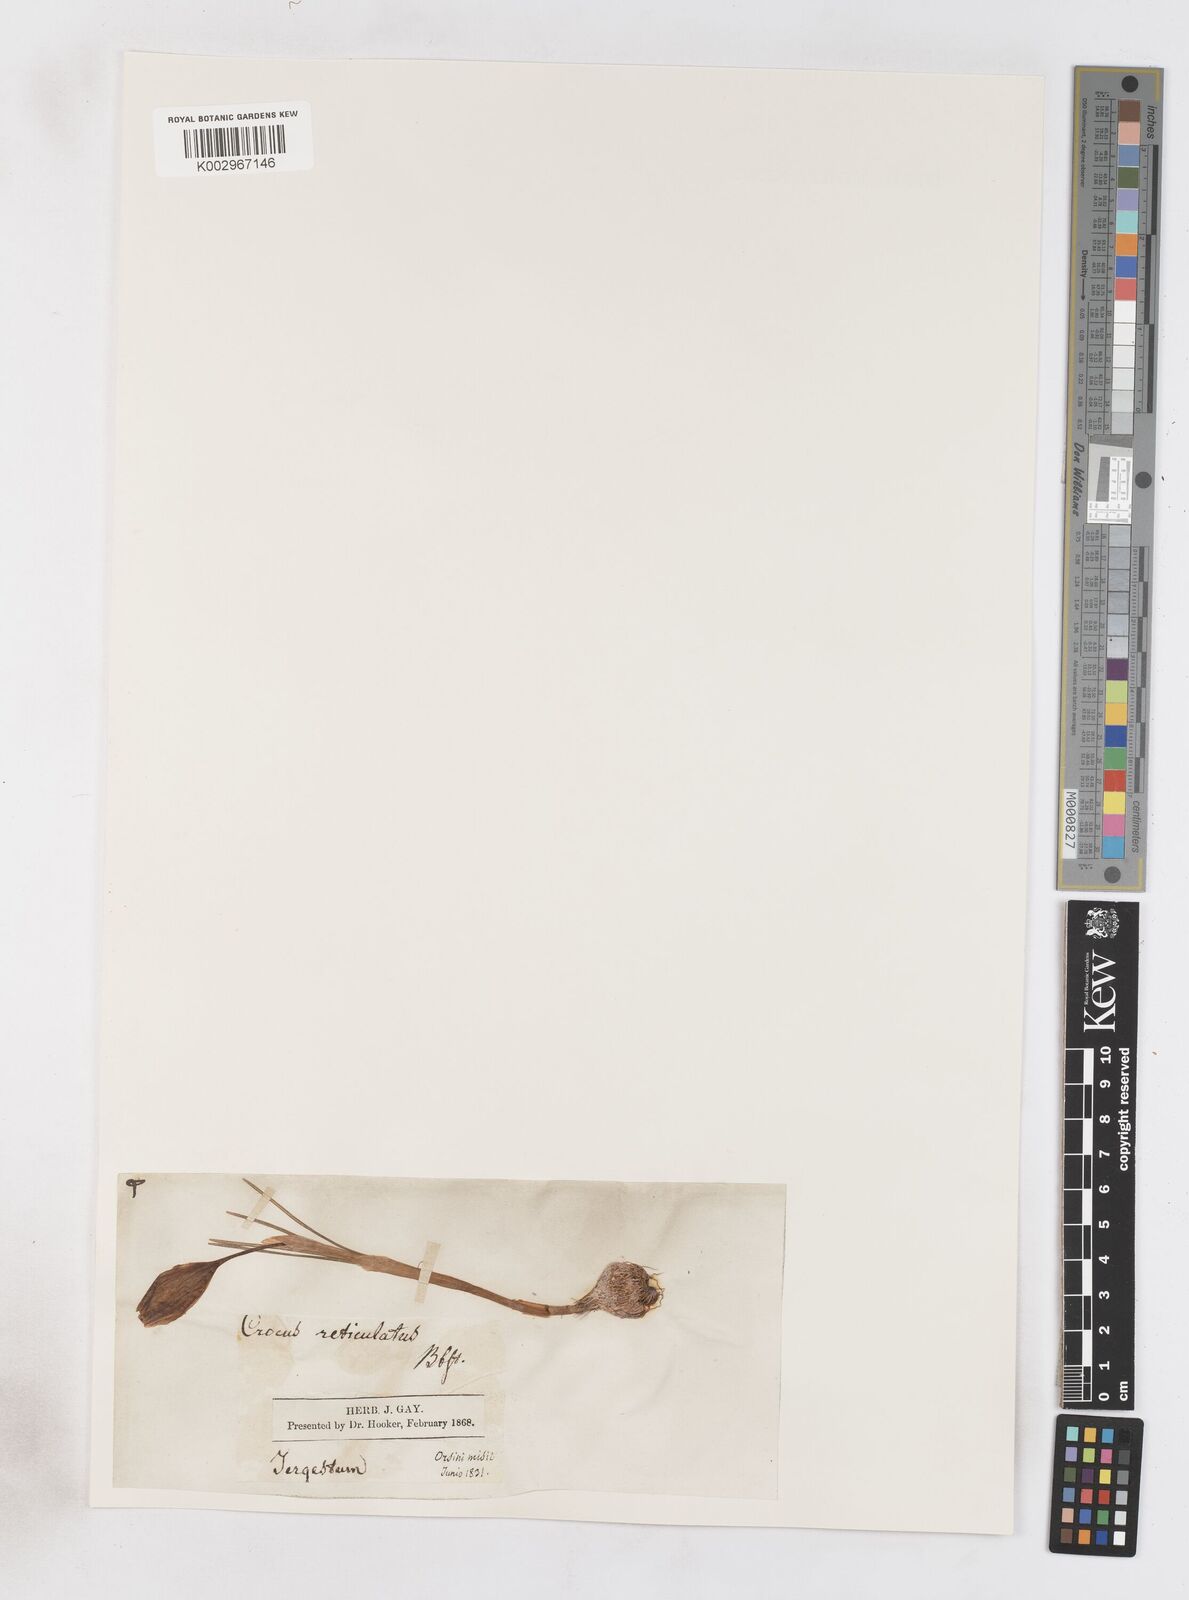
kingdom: Plantae
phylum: Tracheophyta
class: Liliopsida
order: Asparagales
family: Iridaceae
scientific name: Iridaceae
